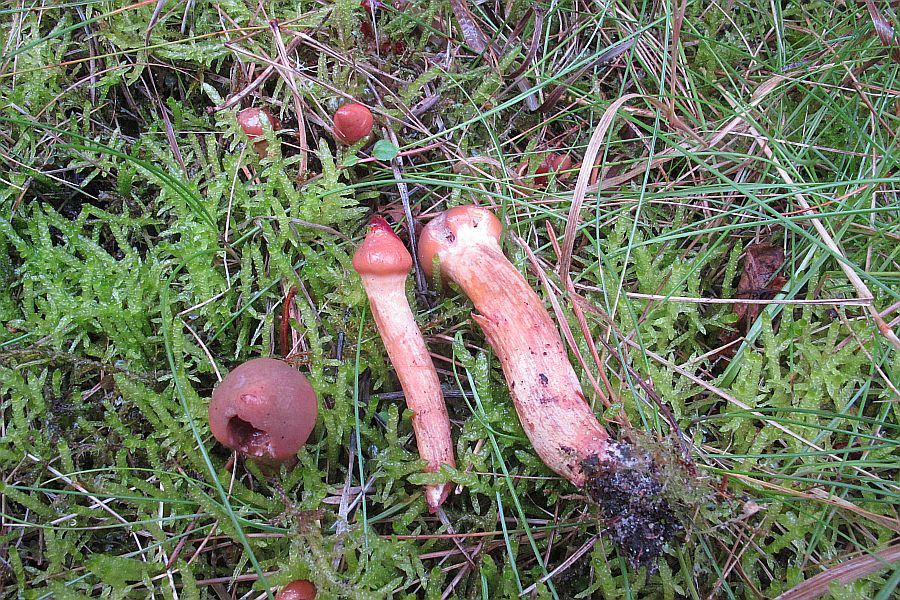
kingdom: Fungi
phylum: Basidiomycota
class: Agaricomycetes
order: Boletales
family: Gomphidiaceae
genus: Chroogomphus
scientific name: Chroogomphus rutilus
